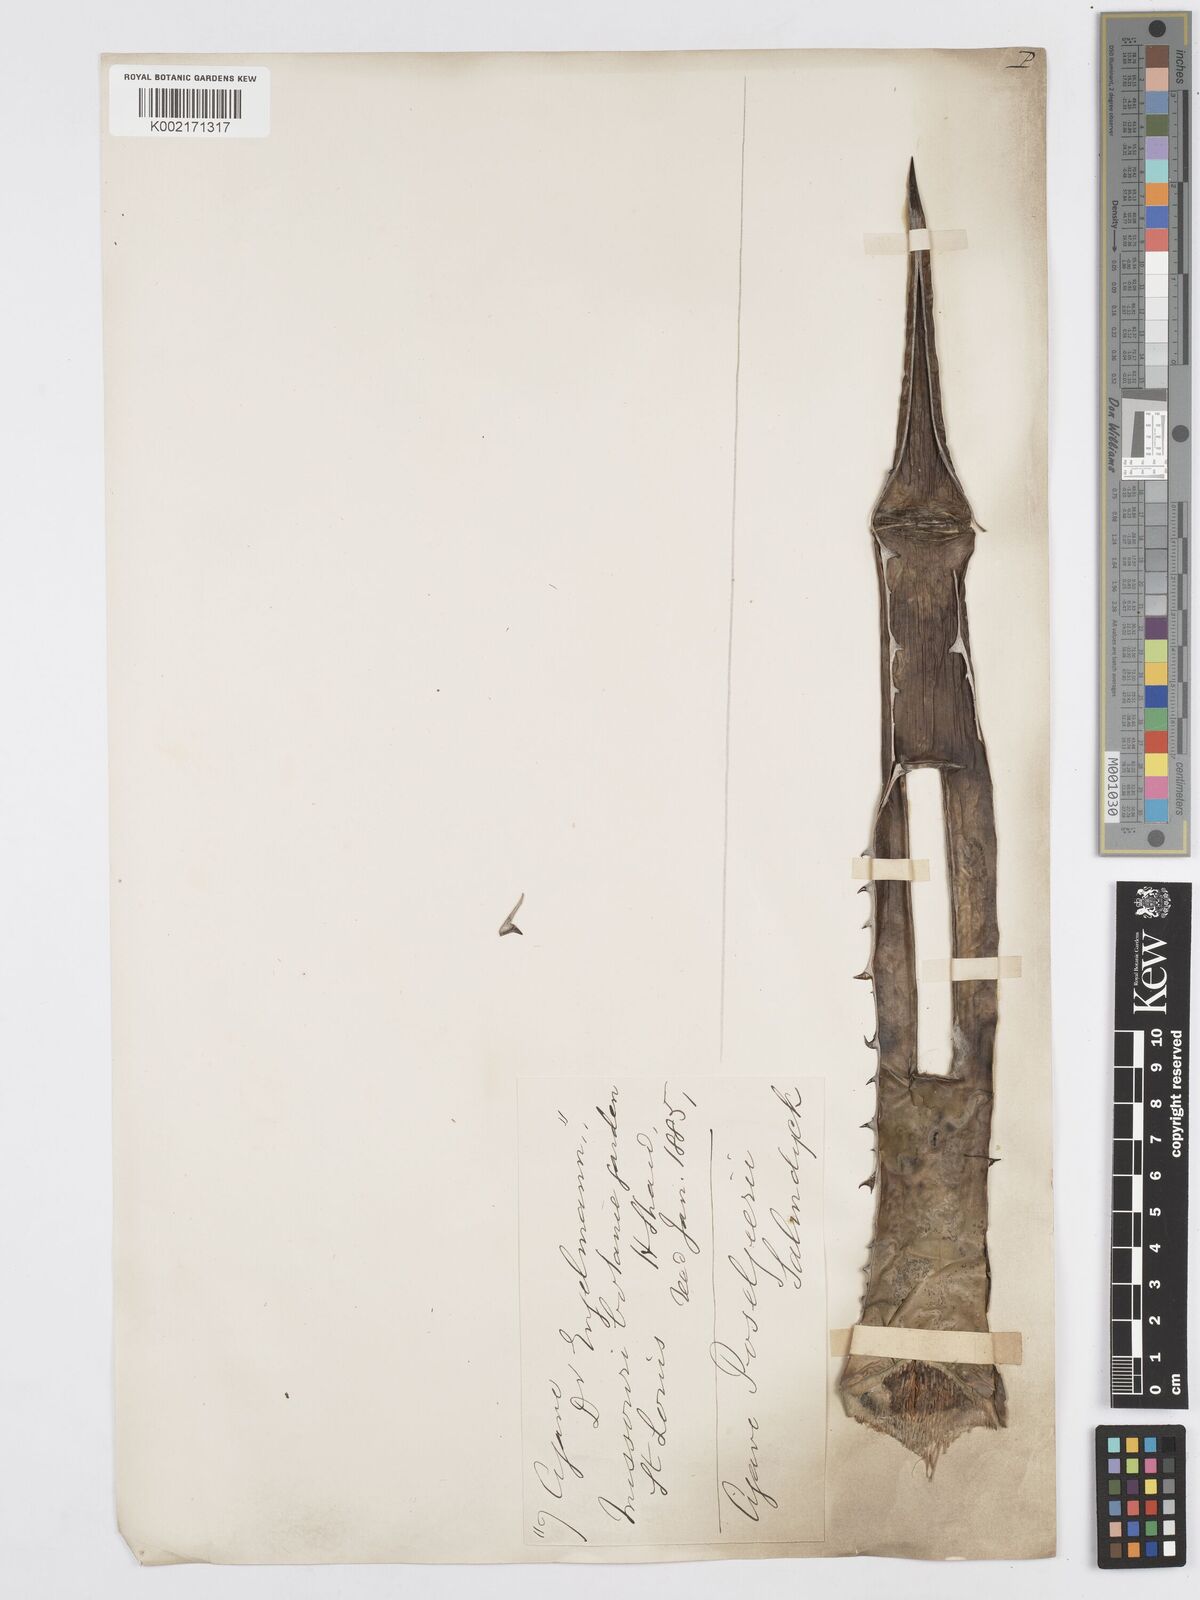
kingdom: Plantae
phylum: Tracheophyta
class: Liliopsida
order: Asparagales
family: Asparagaceae
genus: Agave
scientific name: Agave lechuguilla
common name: Lecheguilla agave
